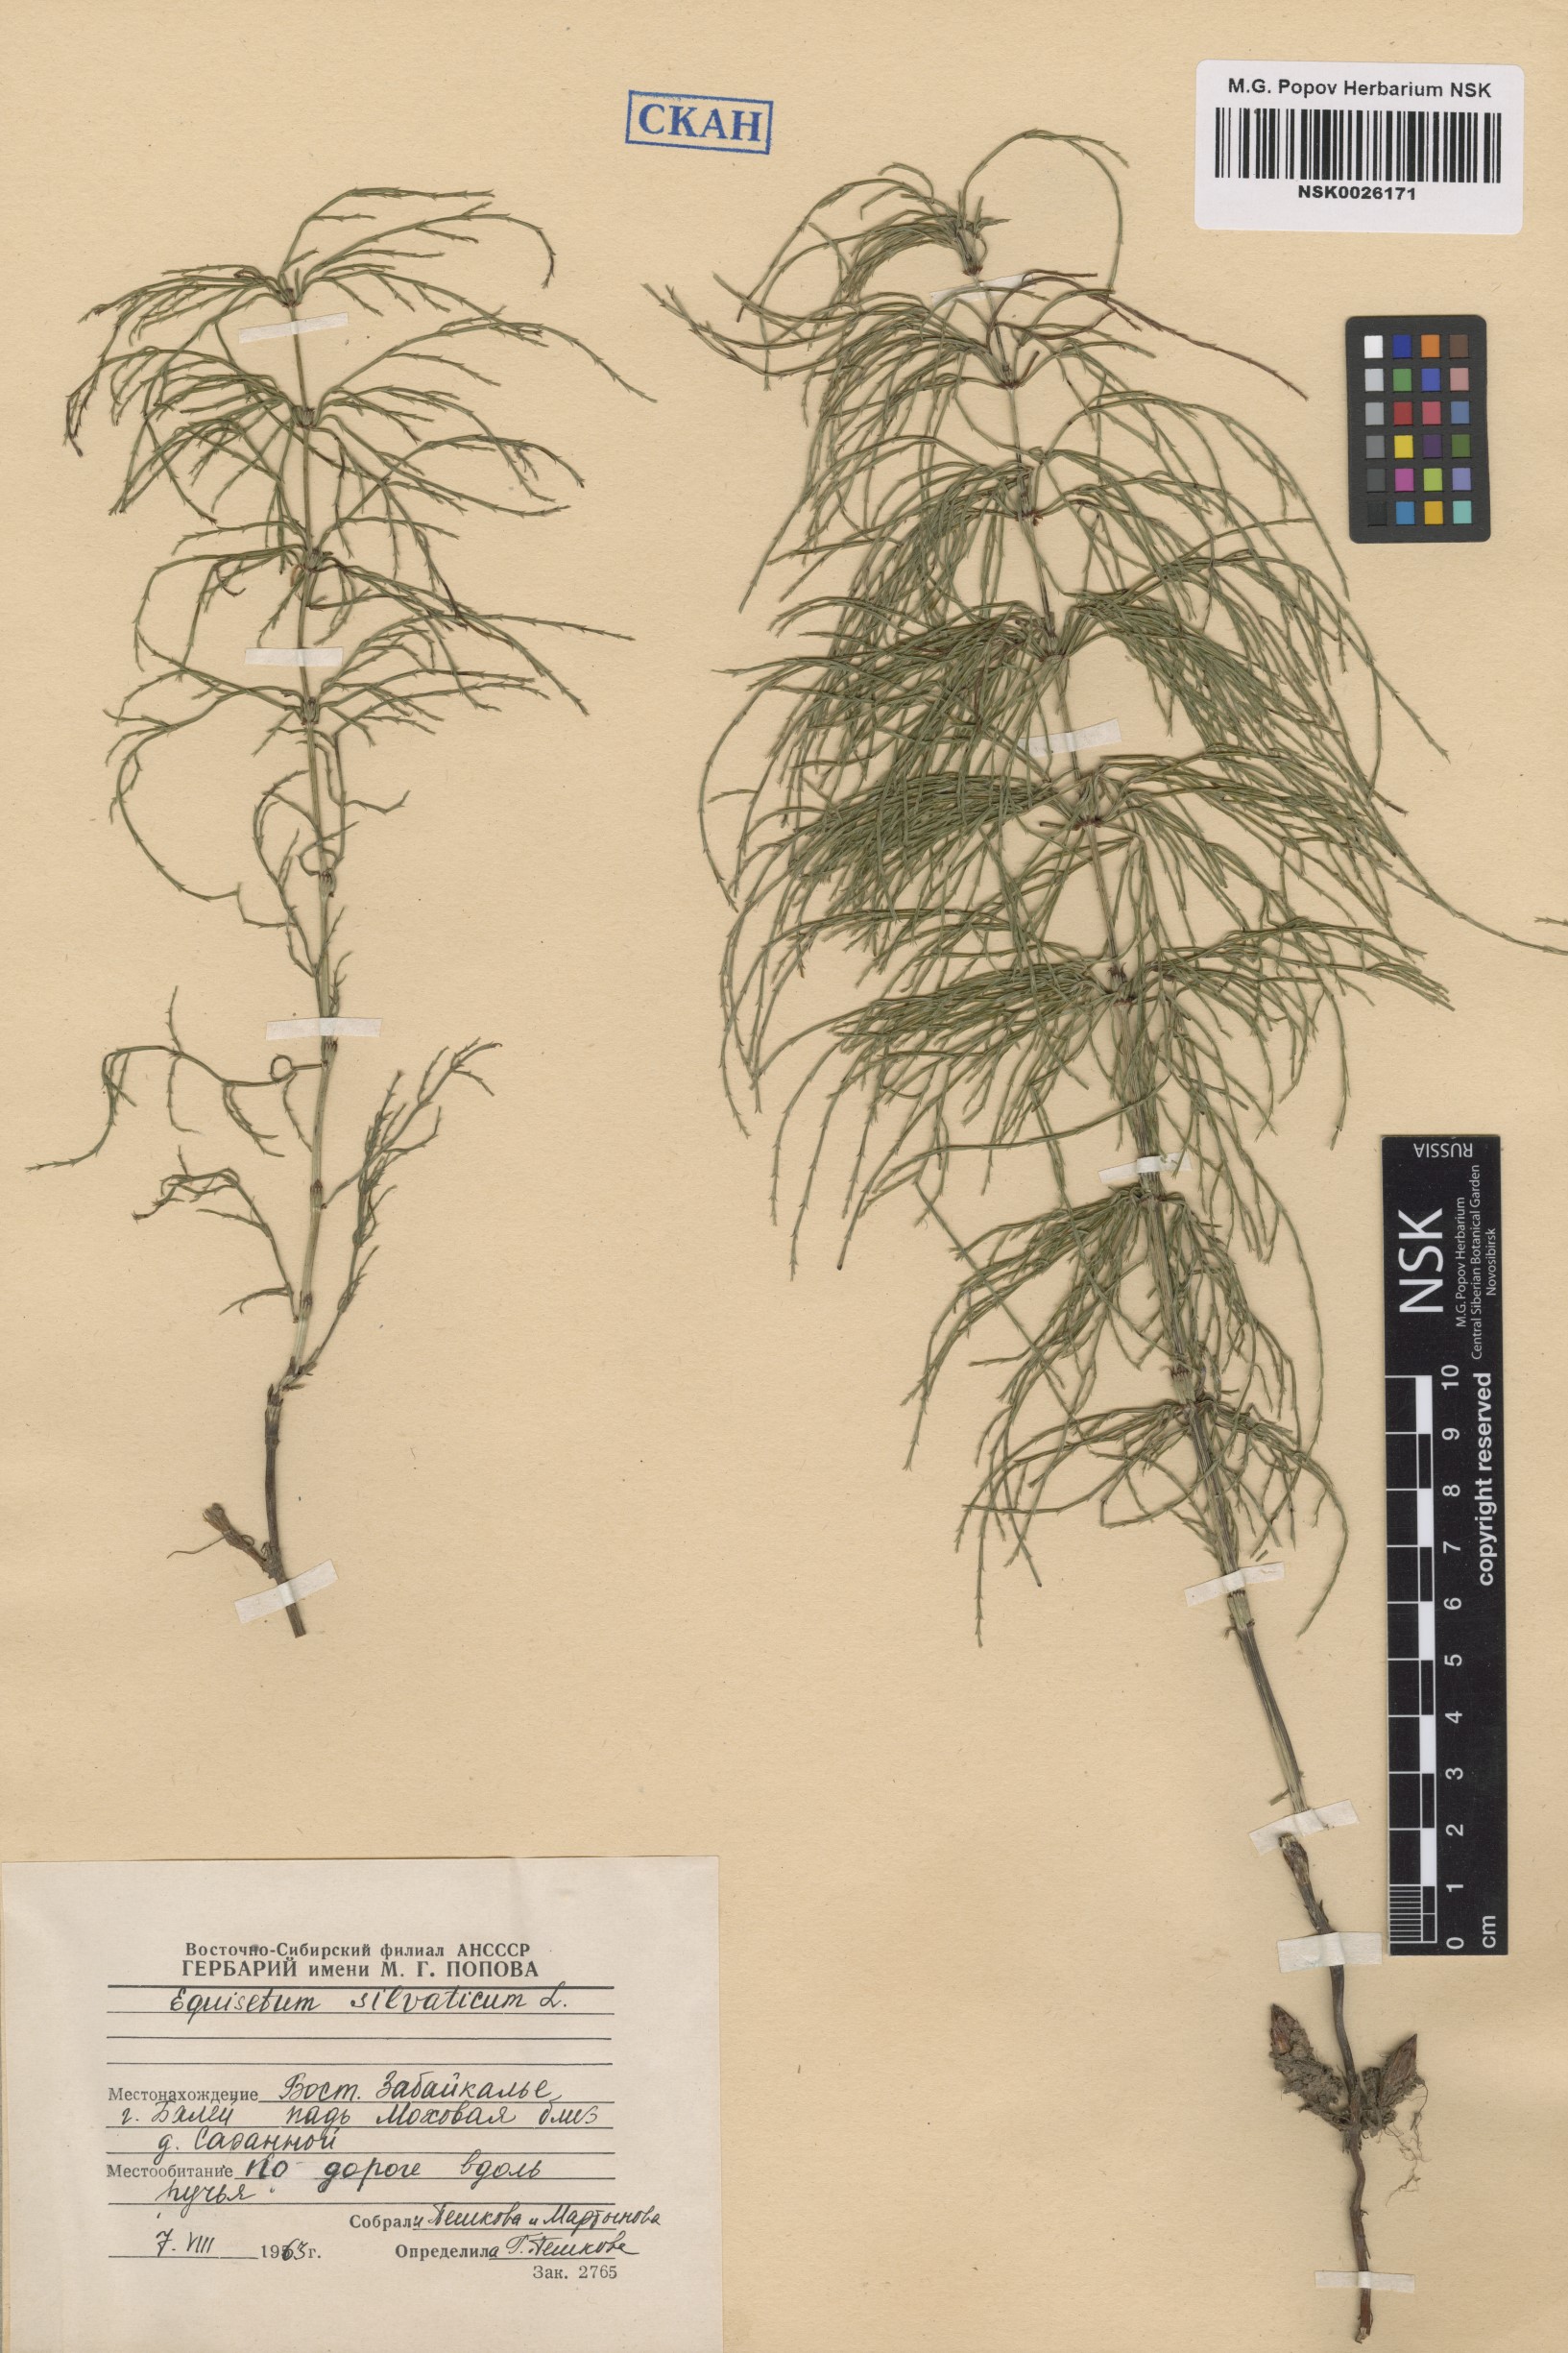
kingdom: Plantae
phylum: Tracheophyta
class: Polypodiopsida
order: Equisetales
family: Equisetaceae
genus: Equisetum
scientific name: Equisetum sylvaticum
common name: Wood horsetail
